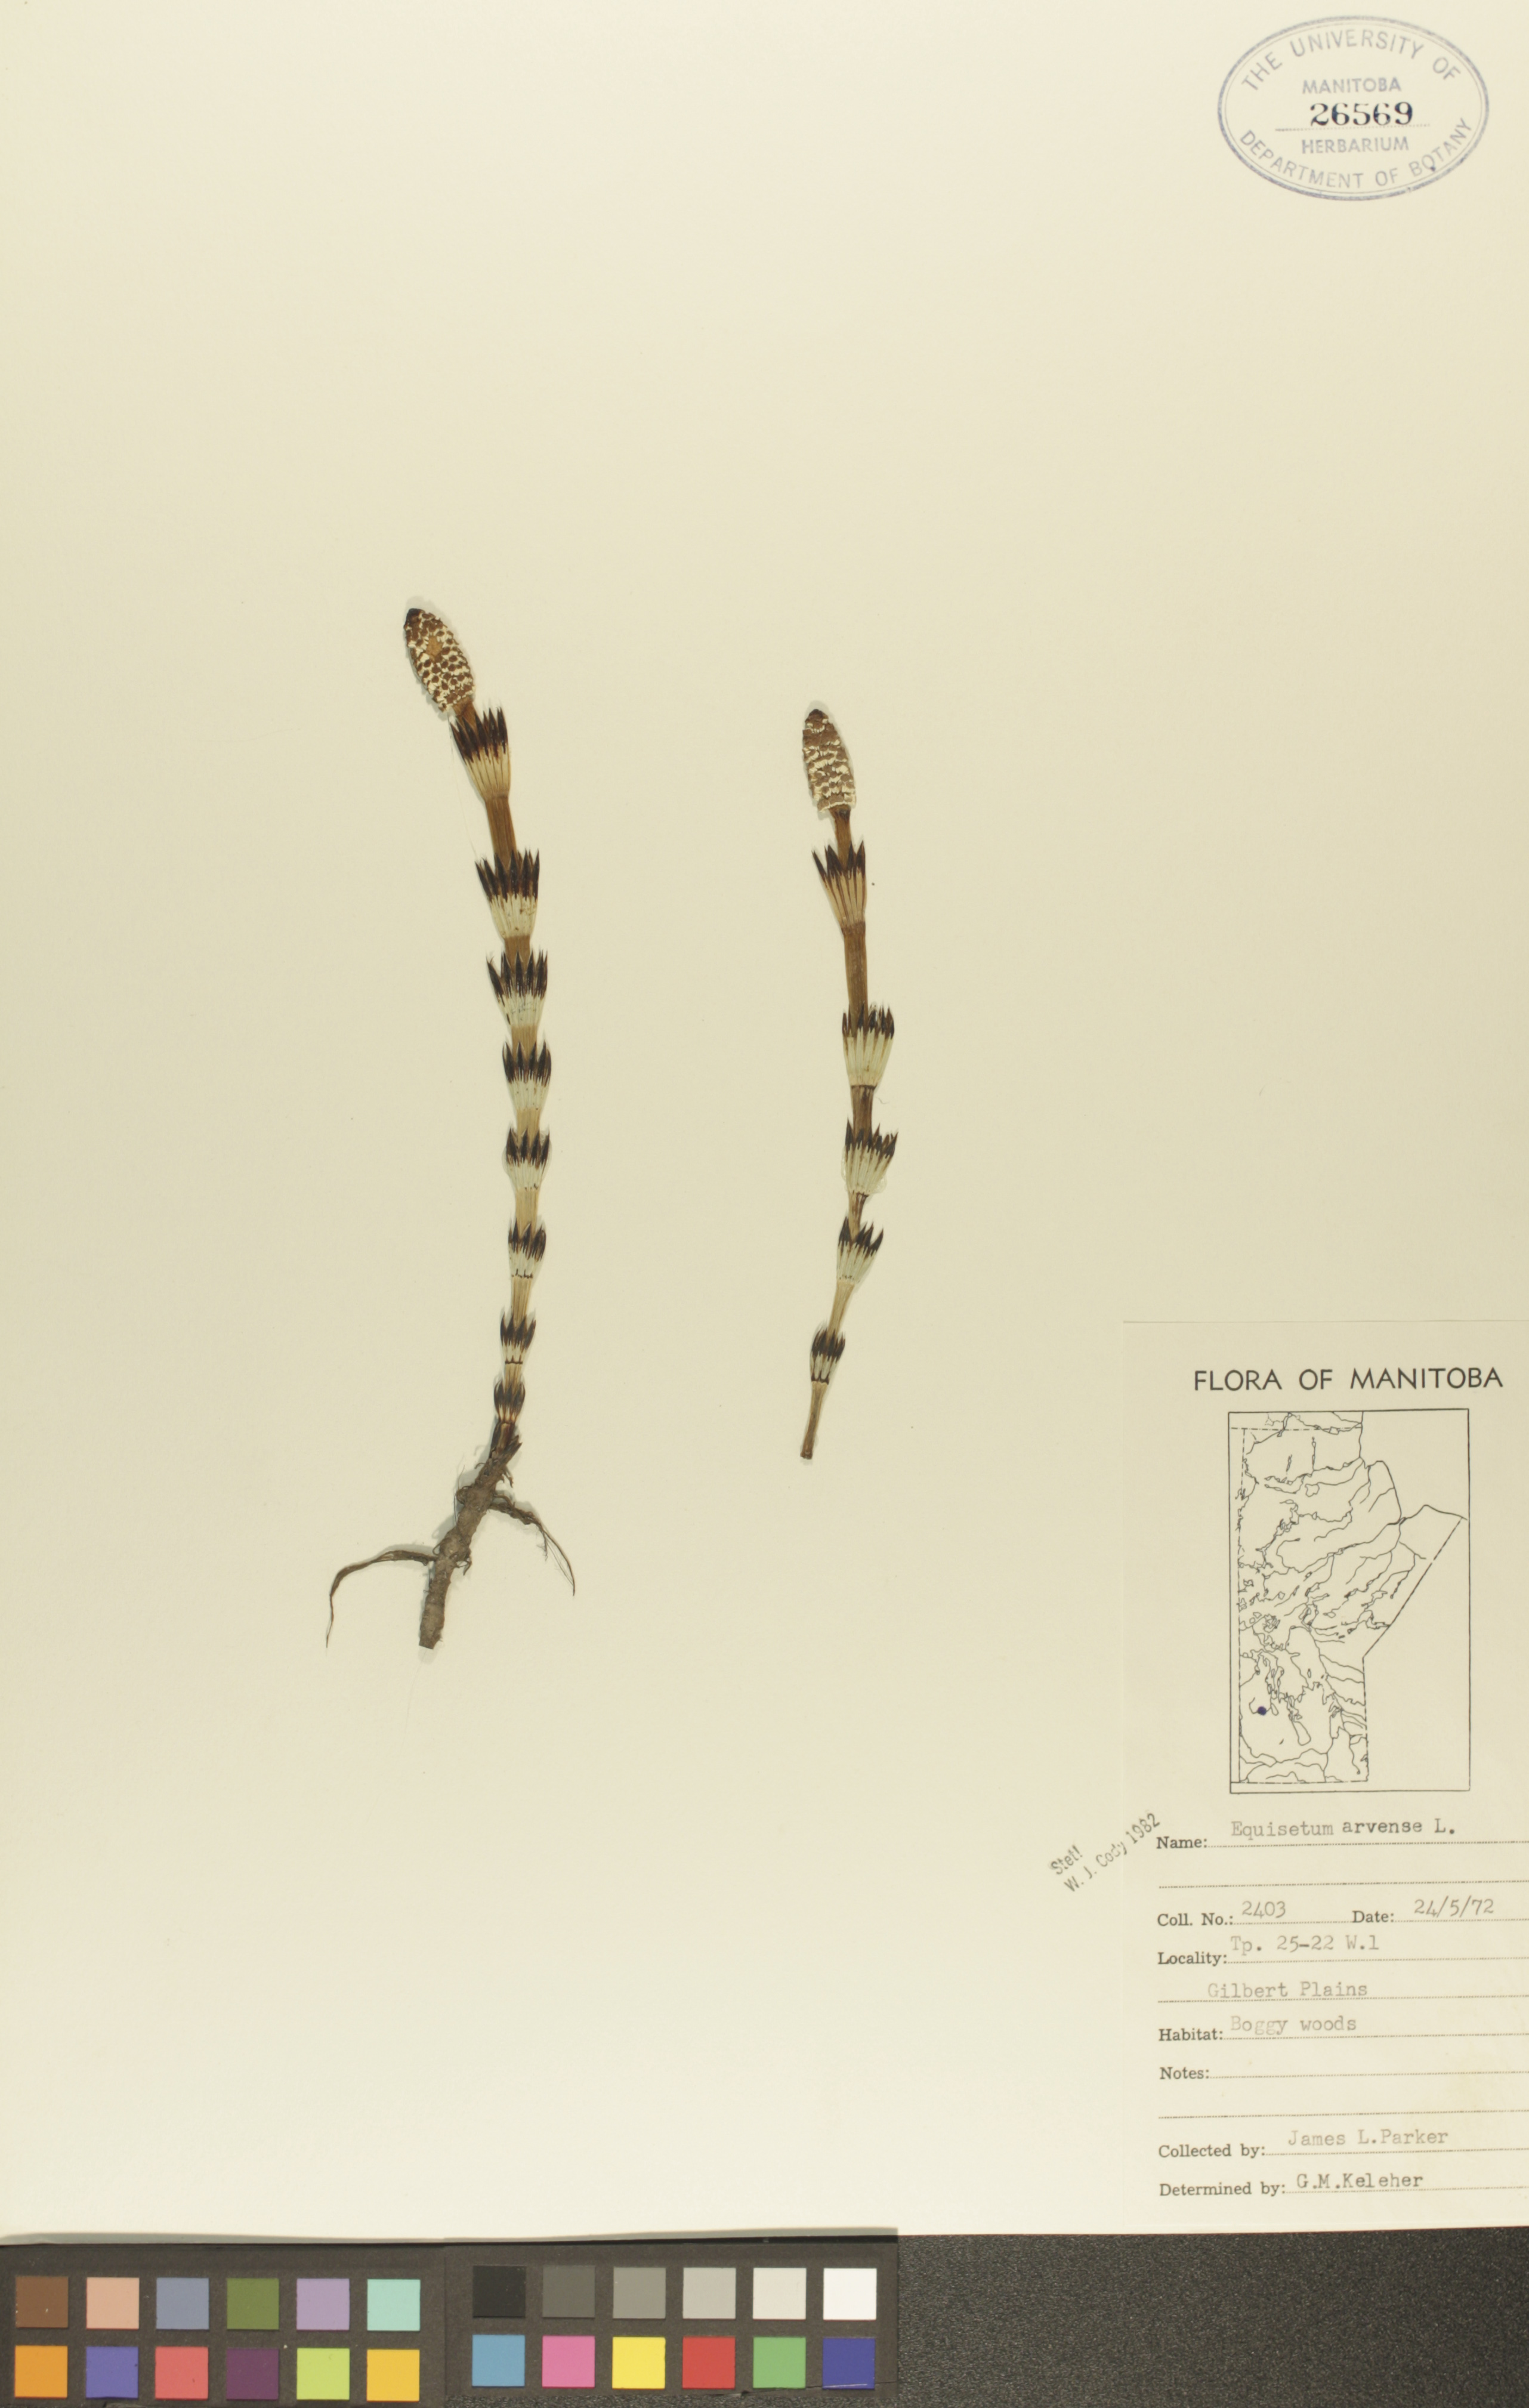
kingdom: Plantae
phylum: Tracheophyta
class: Polypodiopsida
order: Equisetales
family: Equisetaceae
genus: Equisetum
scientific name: Equisetum arvense
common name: Field horsetail
